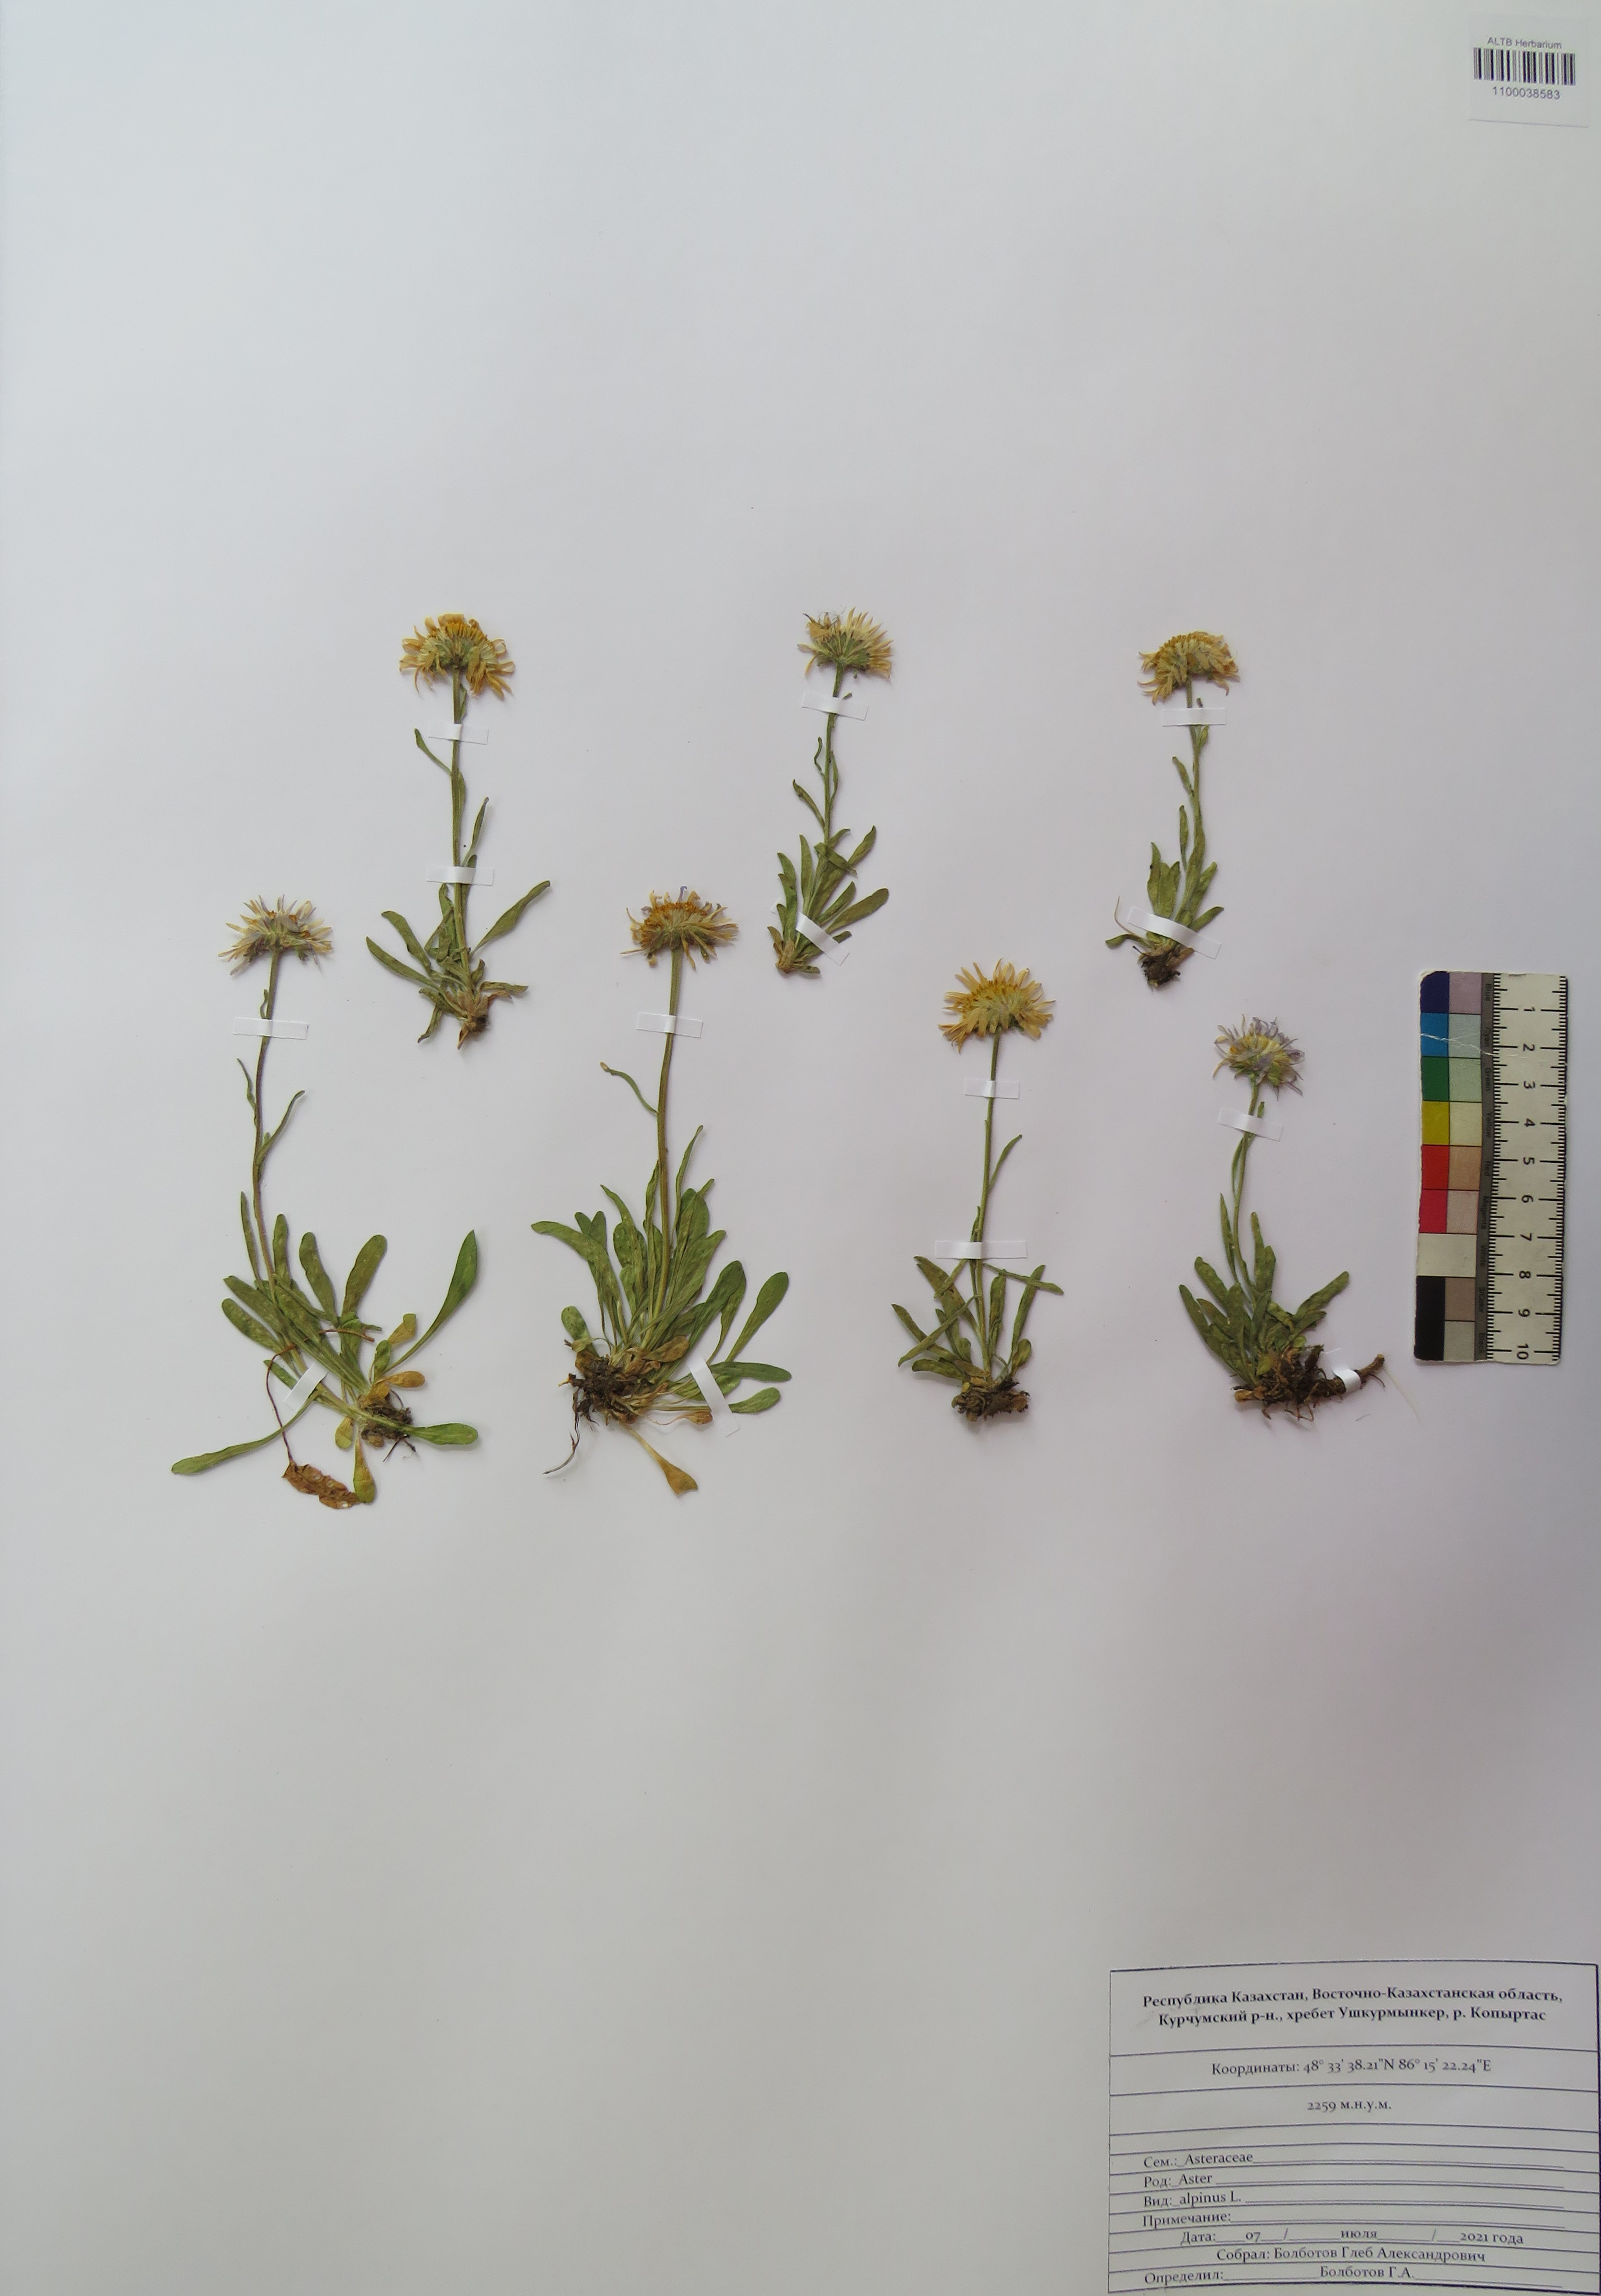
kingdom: Plantae
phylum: Tracheophyta
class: Magnoliopsida
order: Asterales
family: Asteraceae
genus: Aster
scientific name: Aster alpinus
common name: Alpine aster
